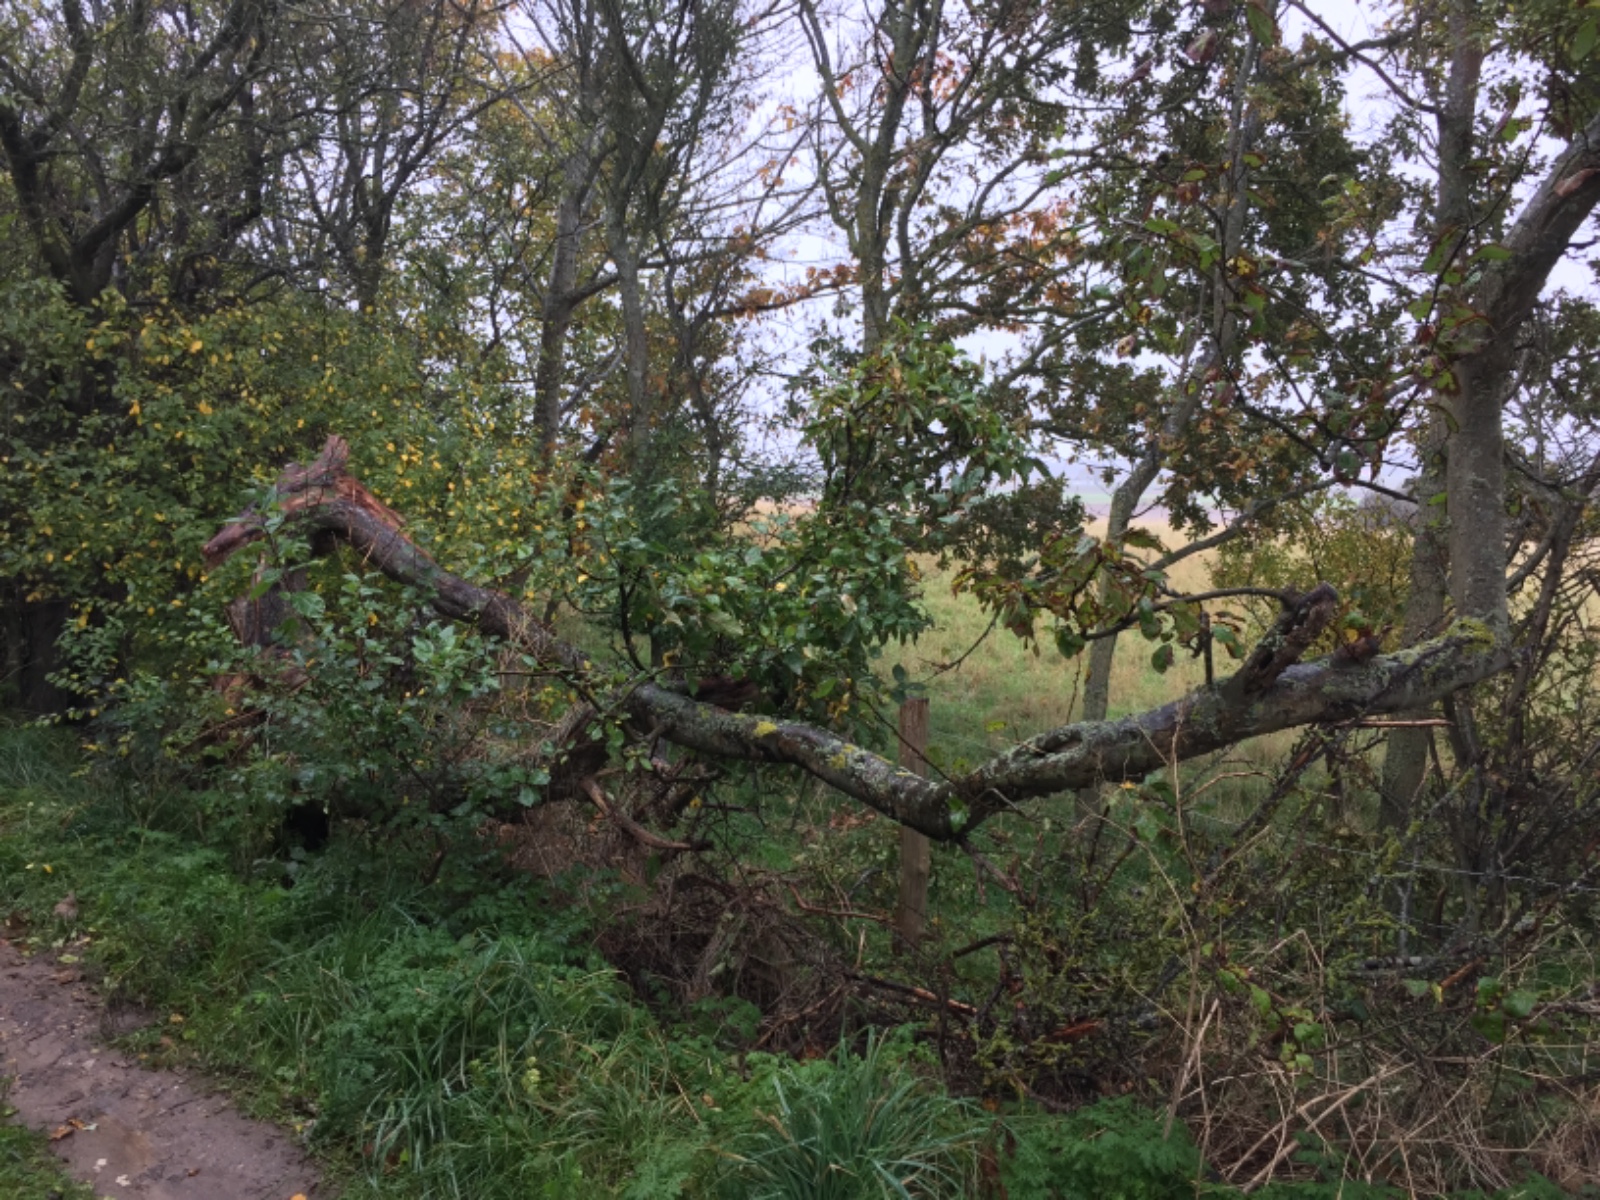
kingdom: Fungi
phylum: Basidiomycota
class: Agaricomycetes
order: Polyporales
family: Meruliaceae
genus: Sarcodontia
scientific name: Sarcodontia setosa
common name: æblepig
